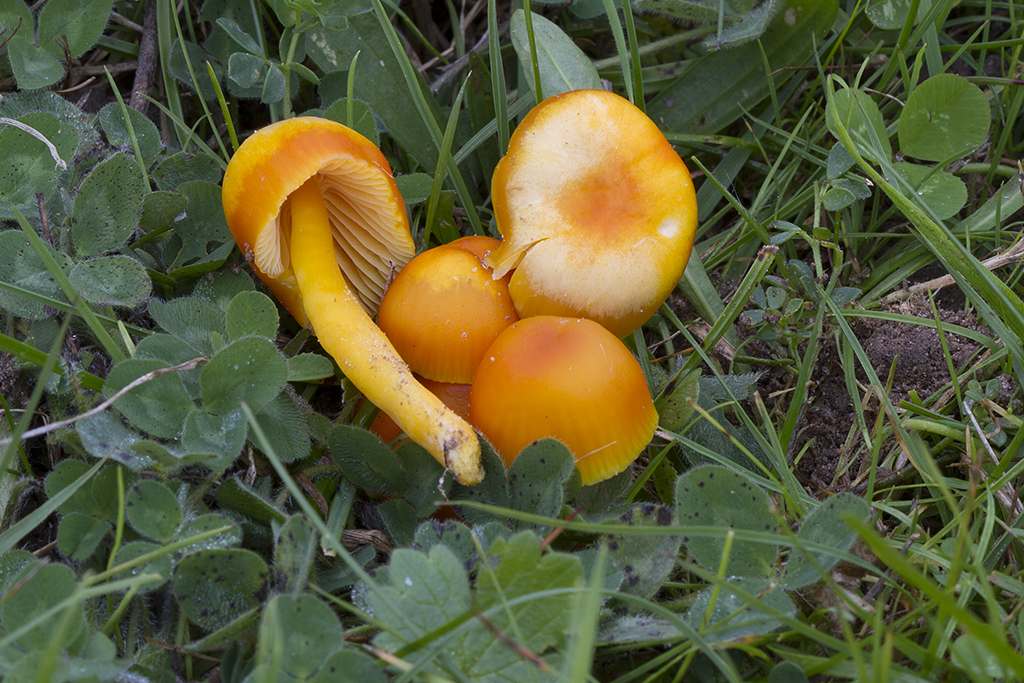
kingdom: Fungi
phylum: Basidiomycota
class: Agaricomycetes
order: Agaricales
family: Hygrophoraceae
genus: Hygrocybe
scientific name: Hygrocybe ceracea
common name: voksgul vokshat
